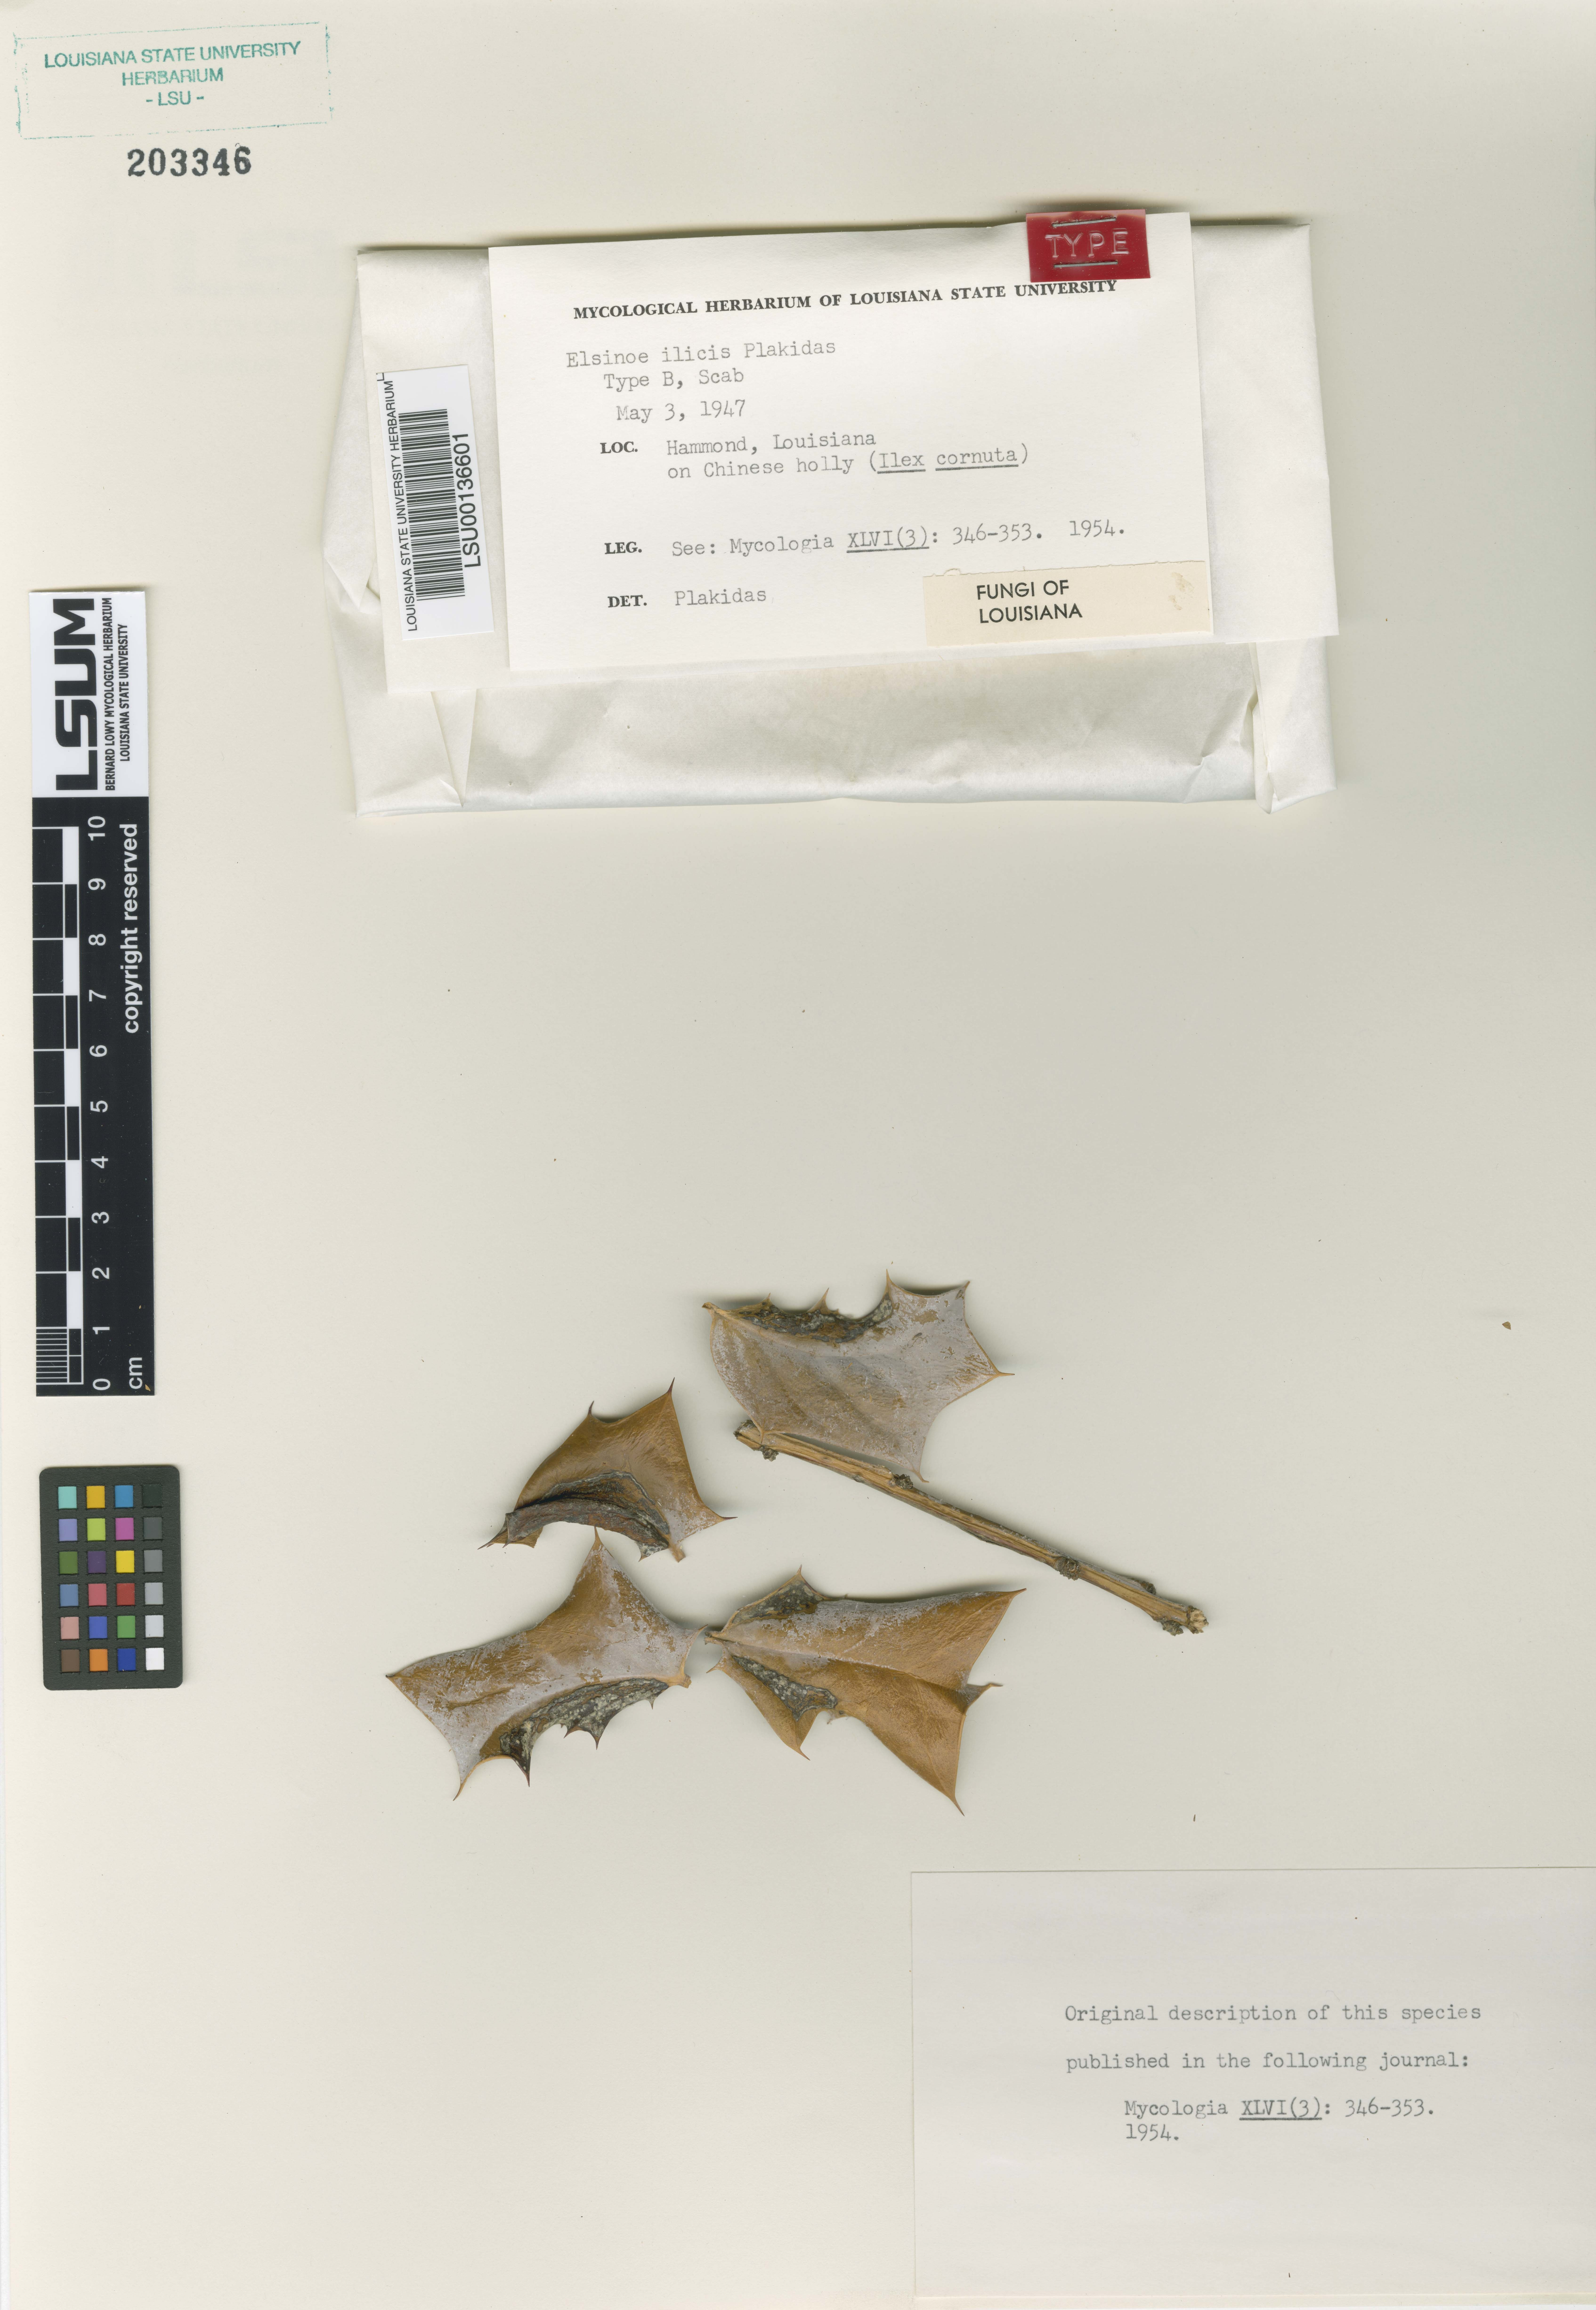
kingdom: Fungi
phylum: Ascomycota
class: Dothideomycetes
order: Myriangiales
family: Elsinoaceae
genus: Elsinoe
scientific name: Elsinoe ilicis
